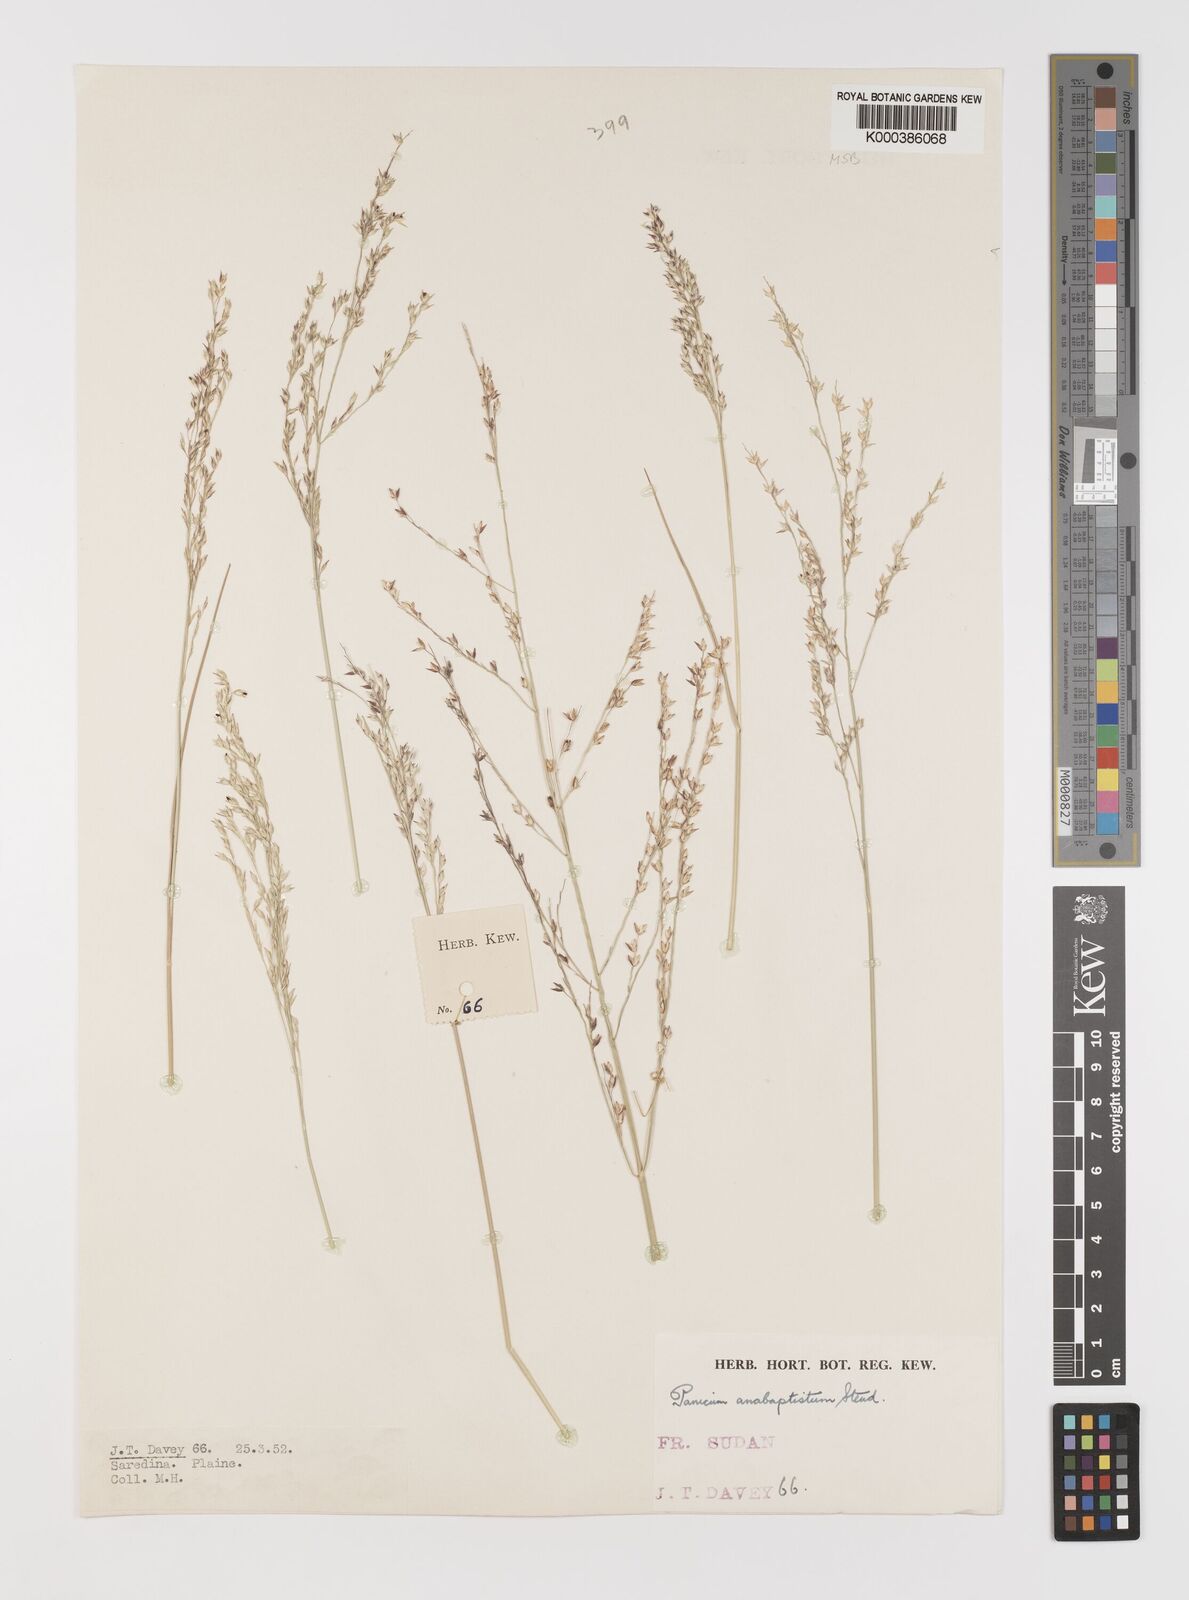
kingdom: Plantae
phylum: Tracheophyta
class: Liliopsida
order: Poales
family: Poaceae
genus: Panicum
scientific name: Panicum anabaptistum
